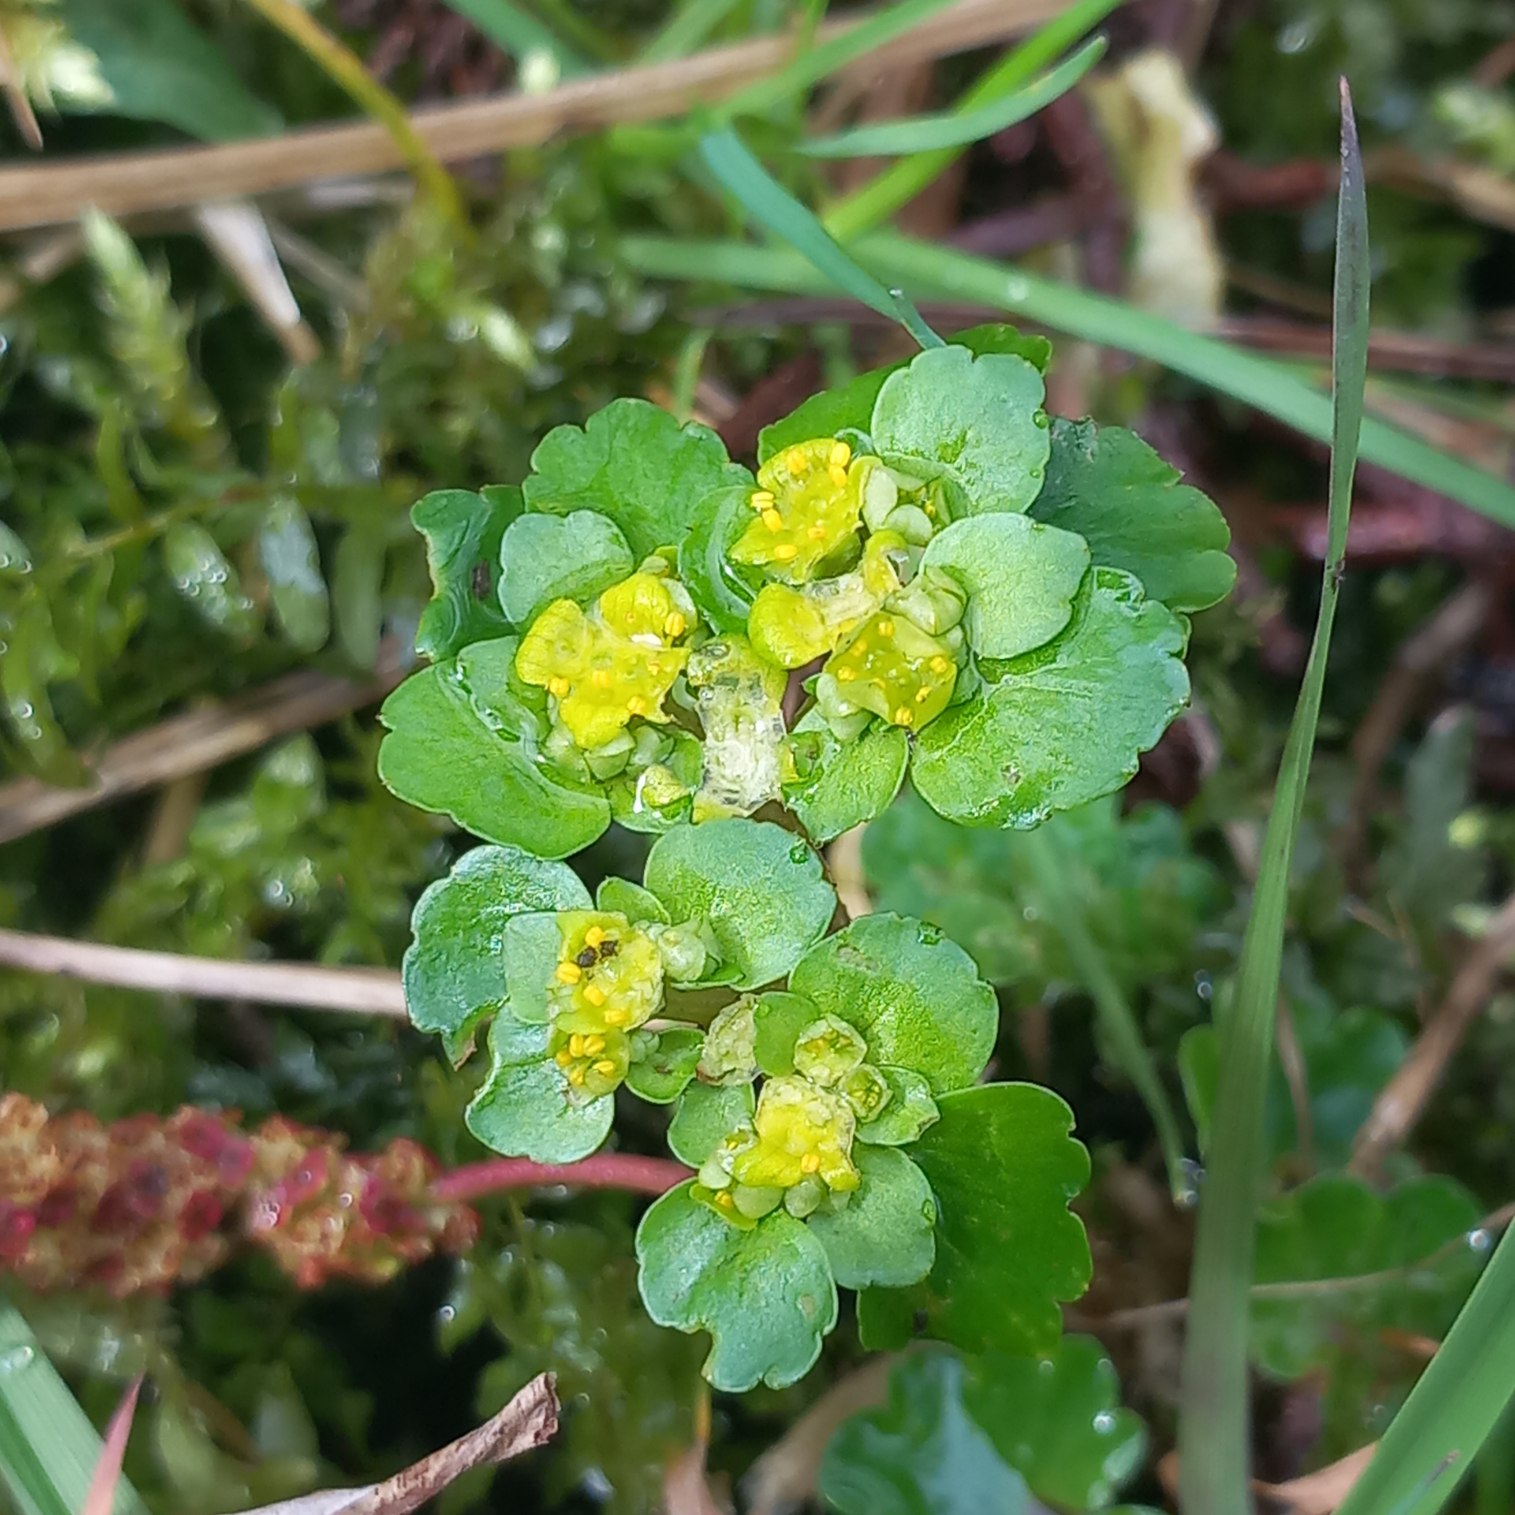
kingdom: Plantae
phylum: Tracheophyta
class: Magnoliopsida
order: Saxifragales
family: Saxifragaceae
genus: Chrysosplenium
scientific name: Chrysosplenium alternifolium
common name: Almindelig milturt
